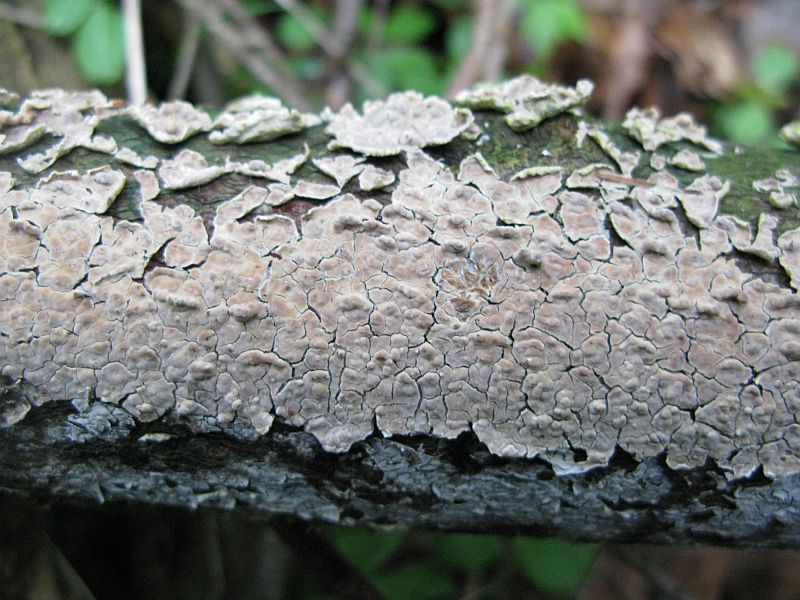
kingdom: Fungi
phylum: Basidiomycota
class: Agaricomycetes
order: Agaricales
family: Physalacriaceae
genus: Cylindrobasidium
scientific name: Cylindrobasidium evolvens
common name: sprækkehinde
